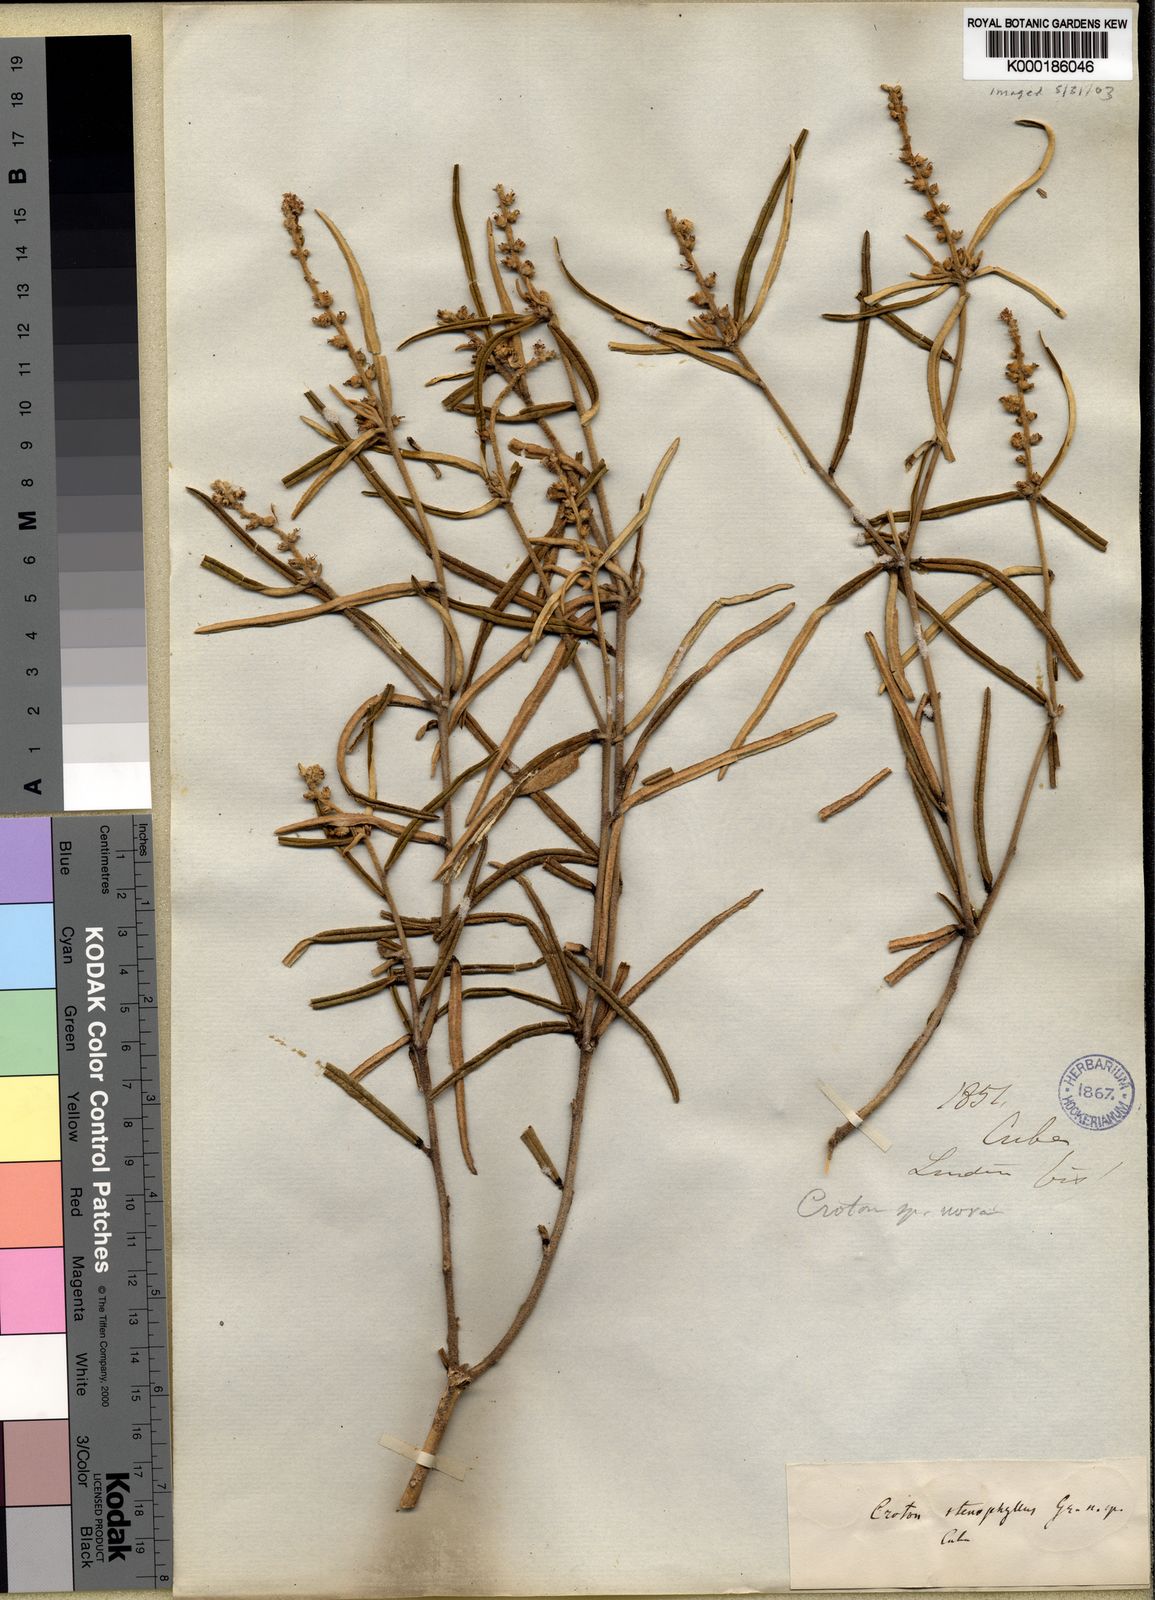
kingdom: Plantae
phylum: Tracheophyta
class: Magnoliopsida
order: Malpighiales
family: Euphorbiaceae
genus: Croton
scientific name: Croton stenophyllus
